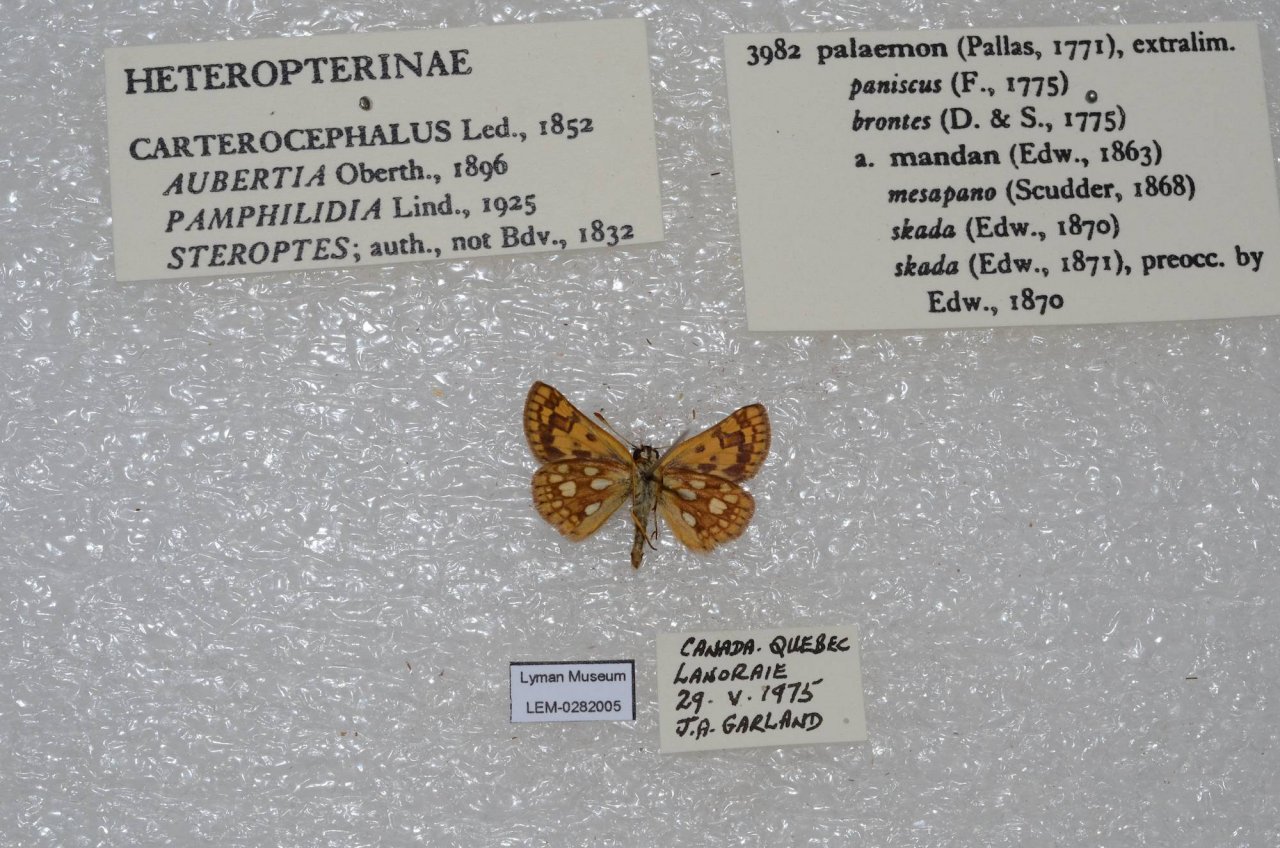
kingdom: Animalia
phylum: Arthropoda
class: Insecta
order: Lepidoptera
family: Hesperiidae
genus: Carterocephalus
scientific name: Carterocephalus palaemon
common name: Chequered Skipper
